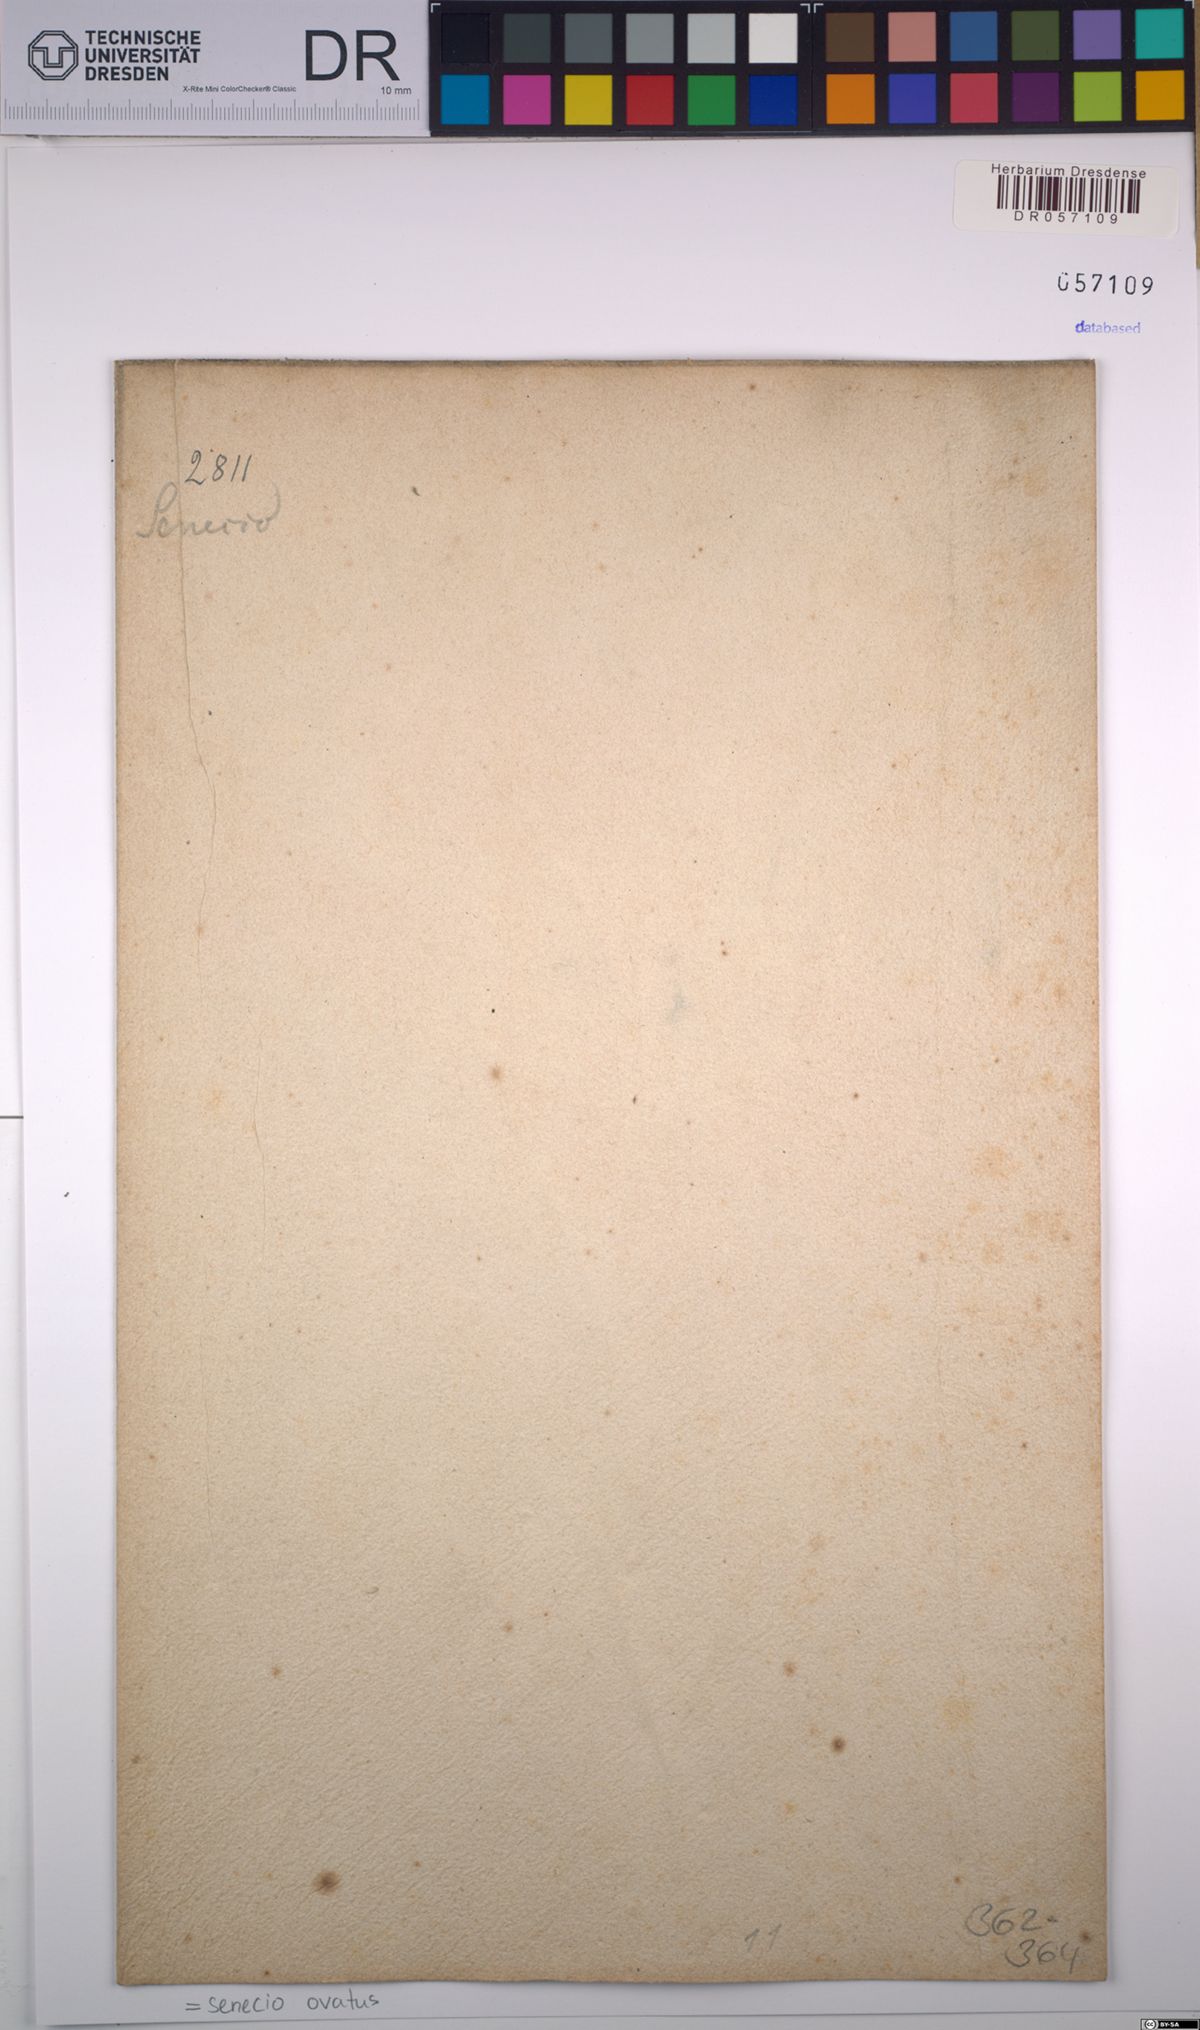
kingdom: Plantae
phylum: Tracheophyta
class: Magnoliopsida
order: Asterales
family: Asteraceae
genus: Senecio
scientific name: Senecio ovatus
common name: Wood ragwort
